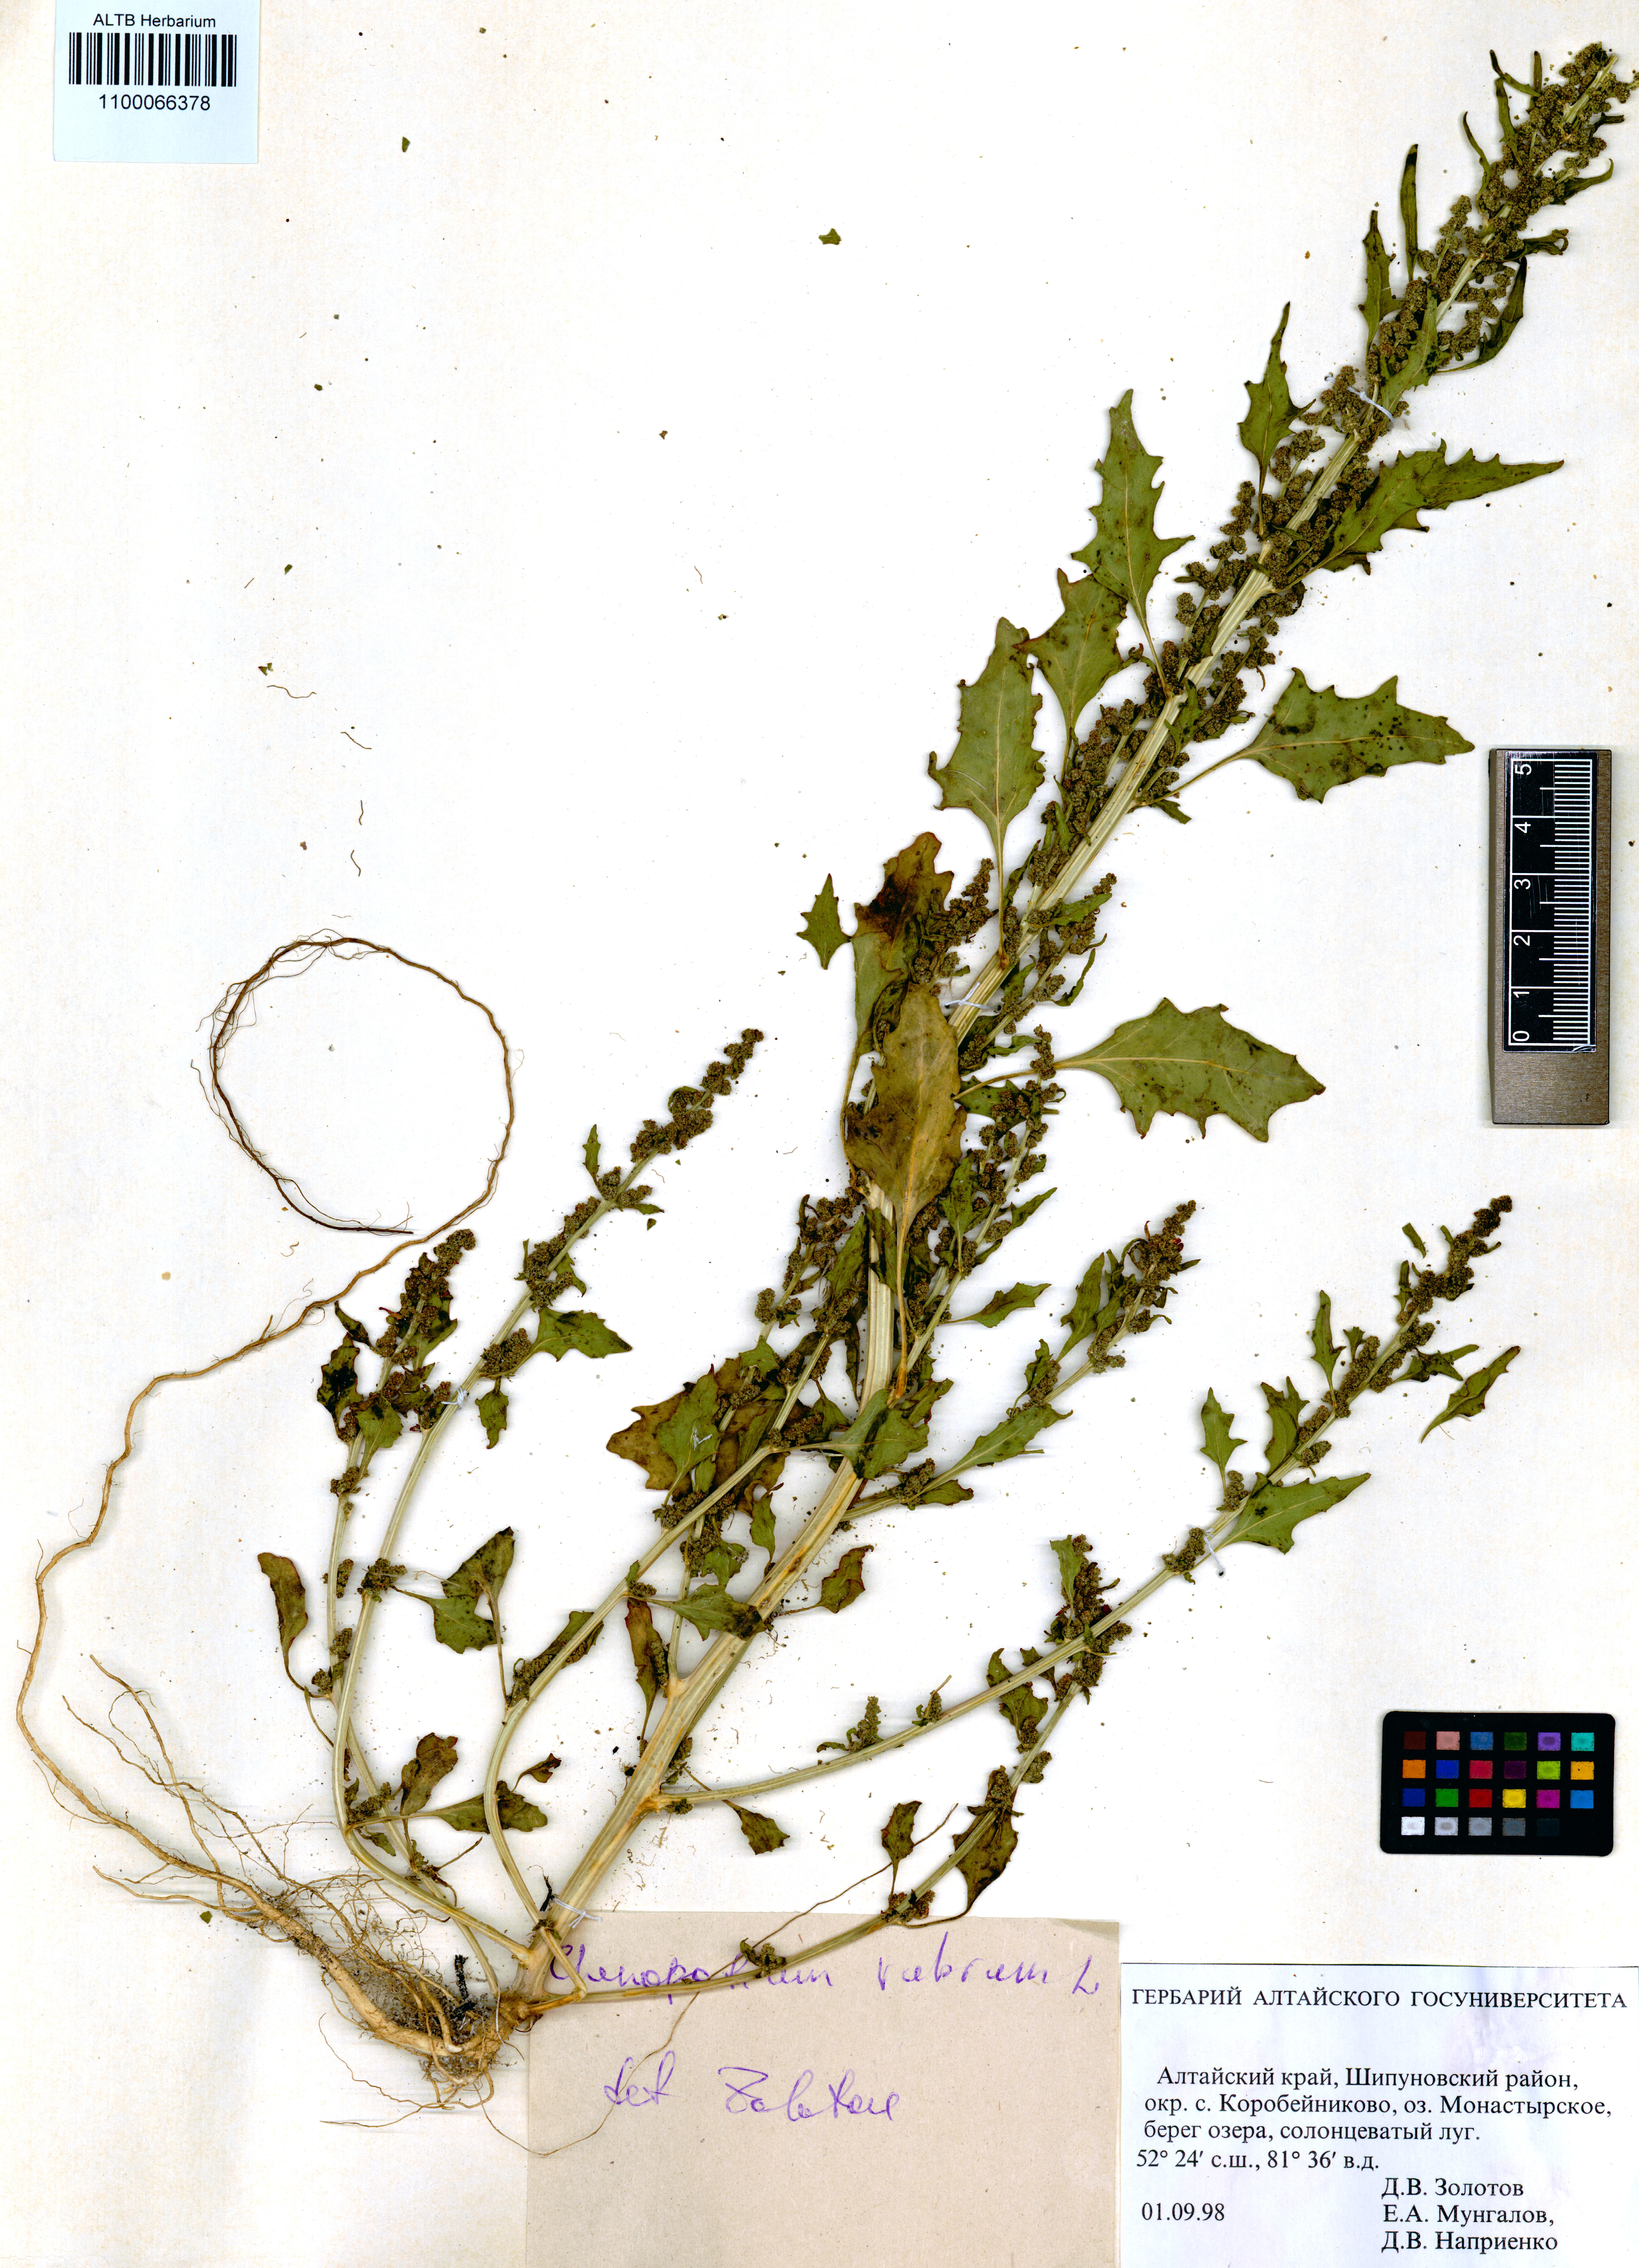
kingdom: Plantae
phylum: Tracheophyta
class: Magnoliopsida
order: Caryophyllales
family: Amaranthaceae
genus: Oxybasis
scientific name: Oxybasis rubra
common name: Red goosefoot
